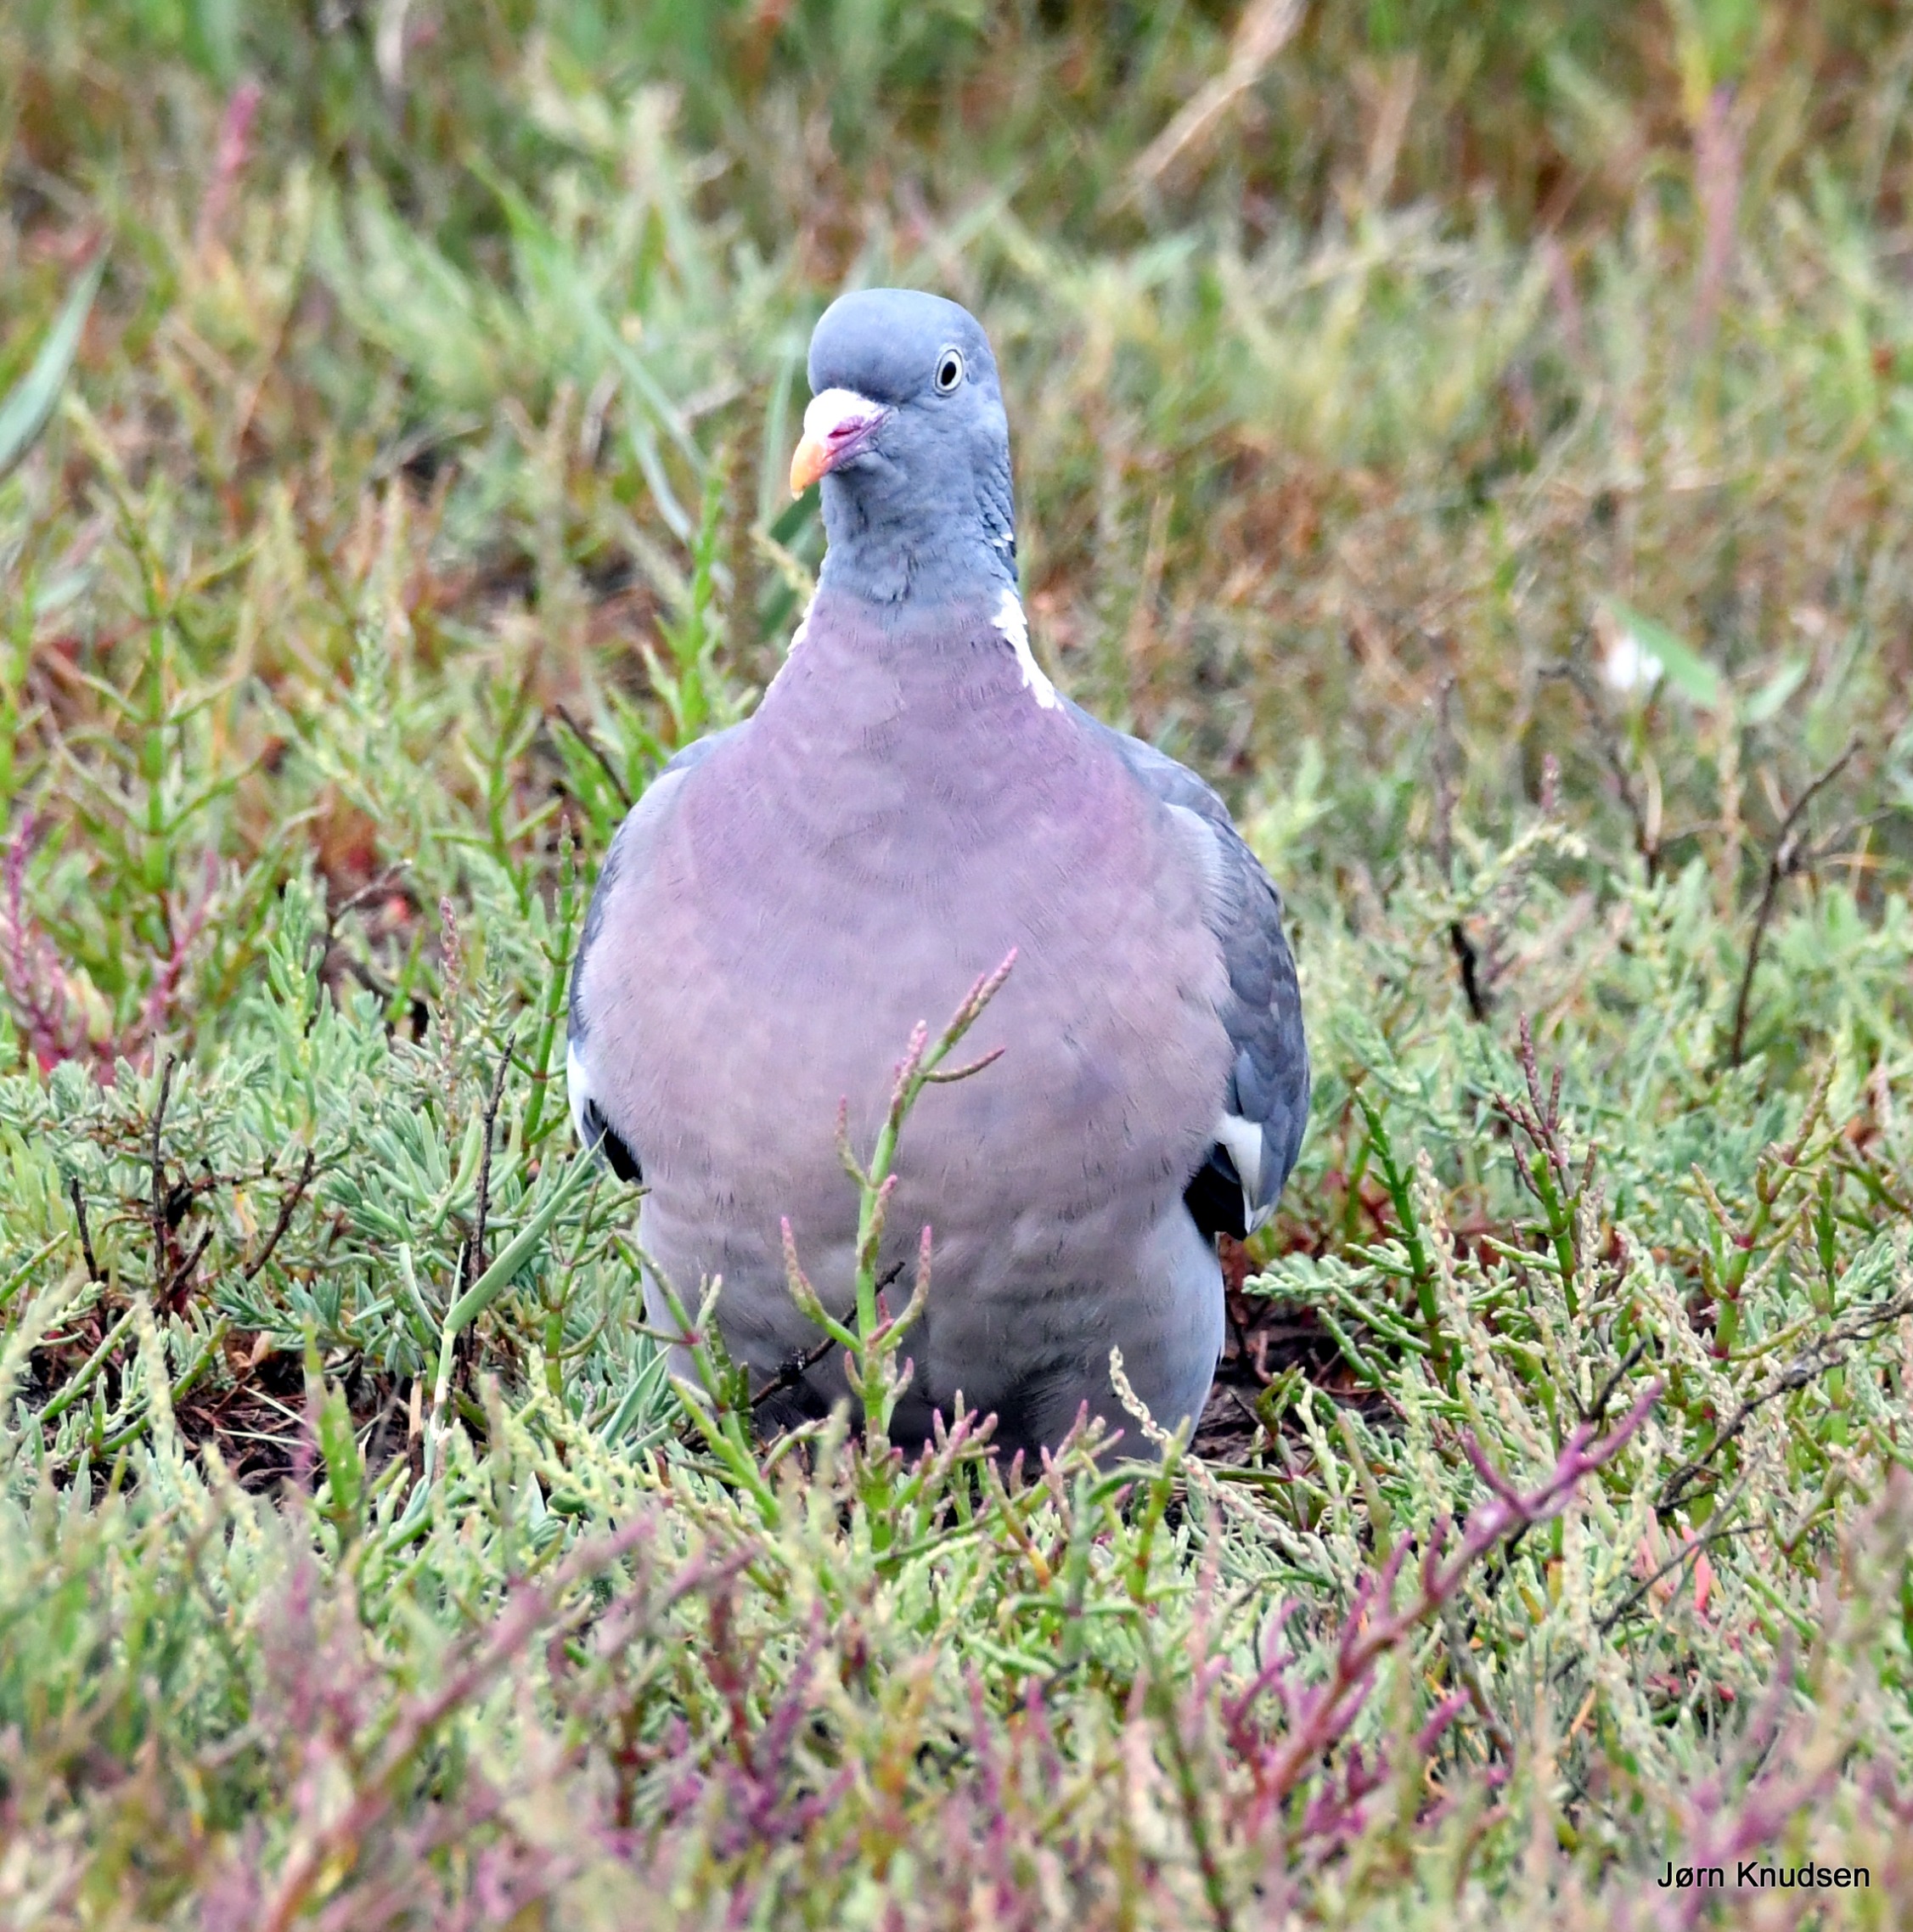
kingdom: Animalia
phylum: Chordata
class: Aves
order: Columbiformes
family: Columbidae
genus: Columba
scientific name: Columba palumbus
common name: Ringdue
